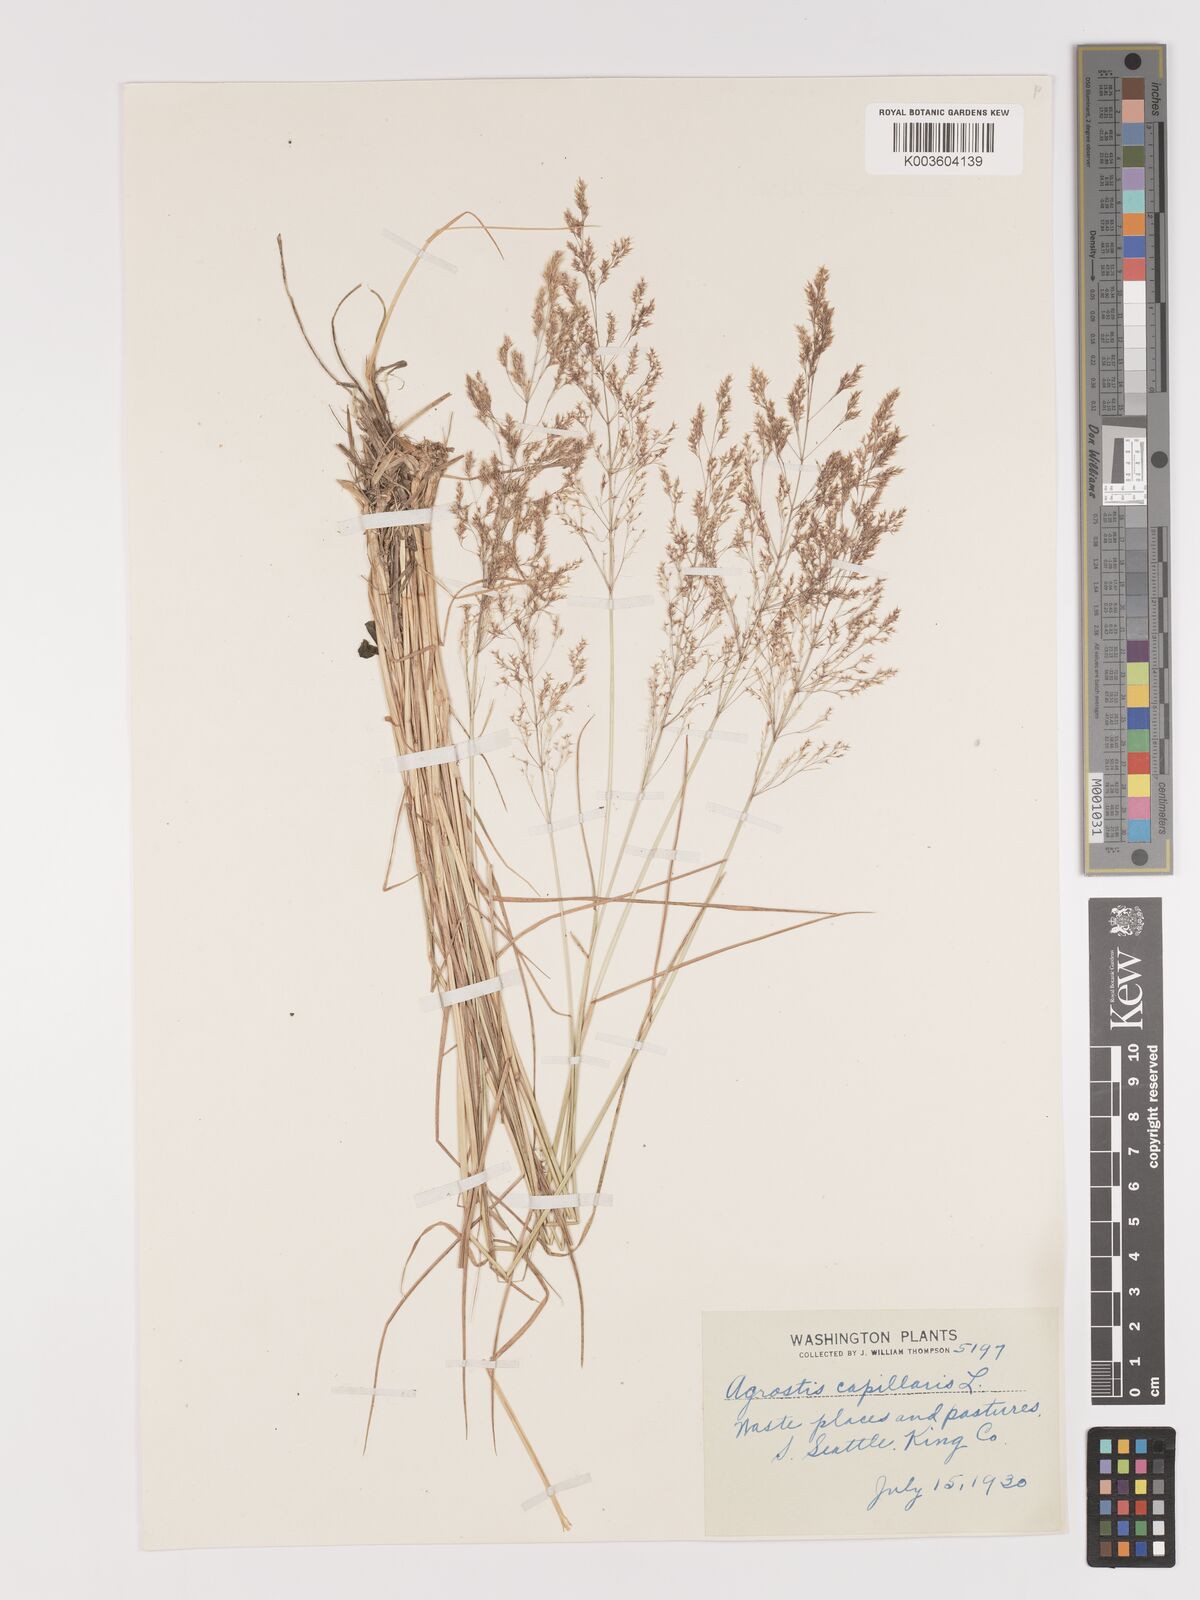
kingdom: Plantae
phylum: Tracheophyta
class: Liliopsida
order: Poales
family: Poaceae
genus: Agrostis
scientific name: Agrostis capillaris
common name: Colonial bentgrass
